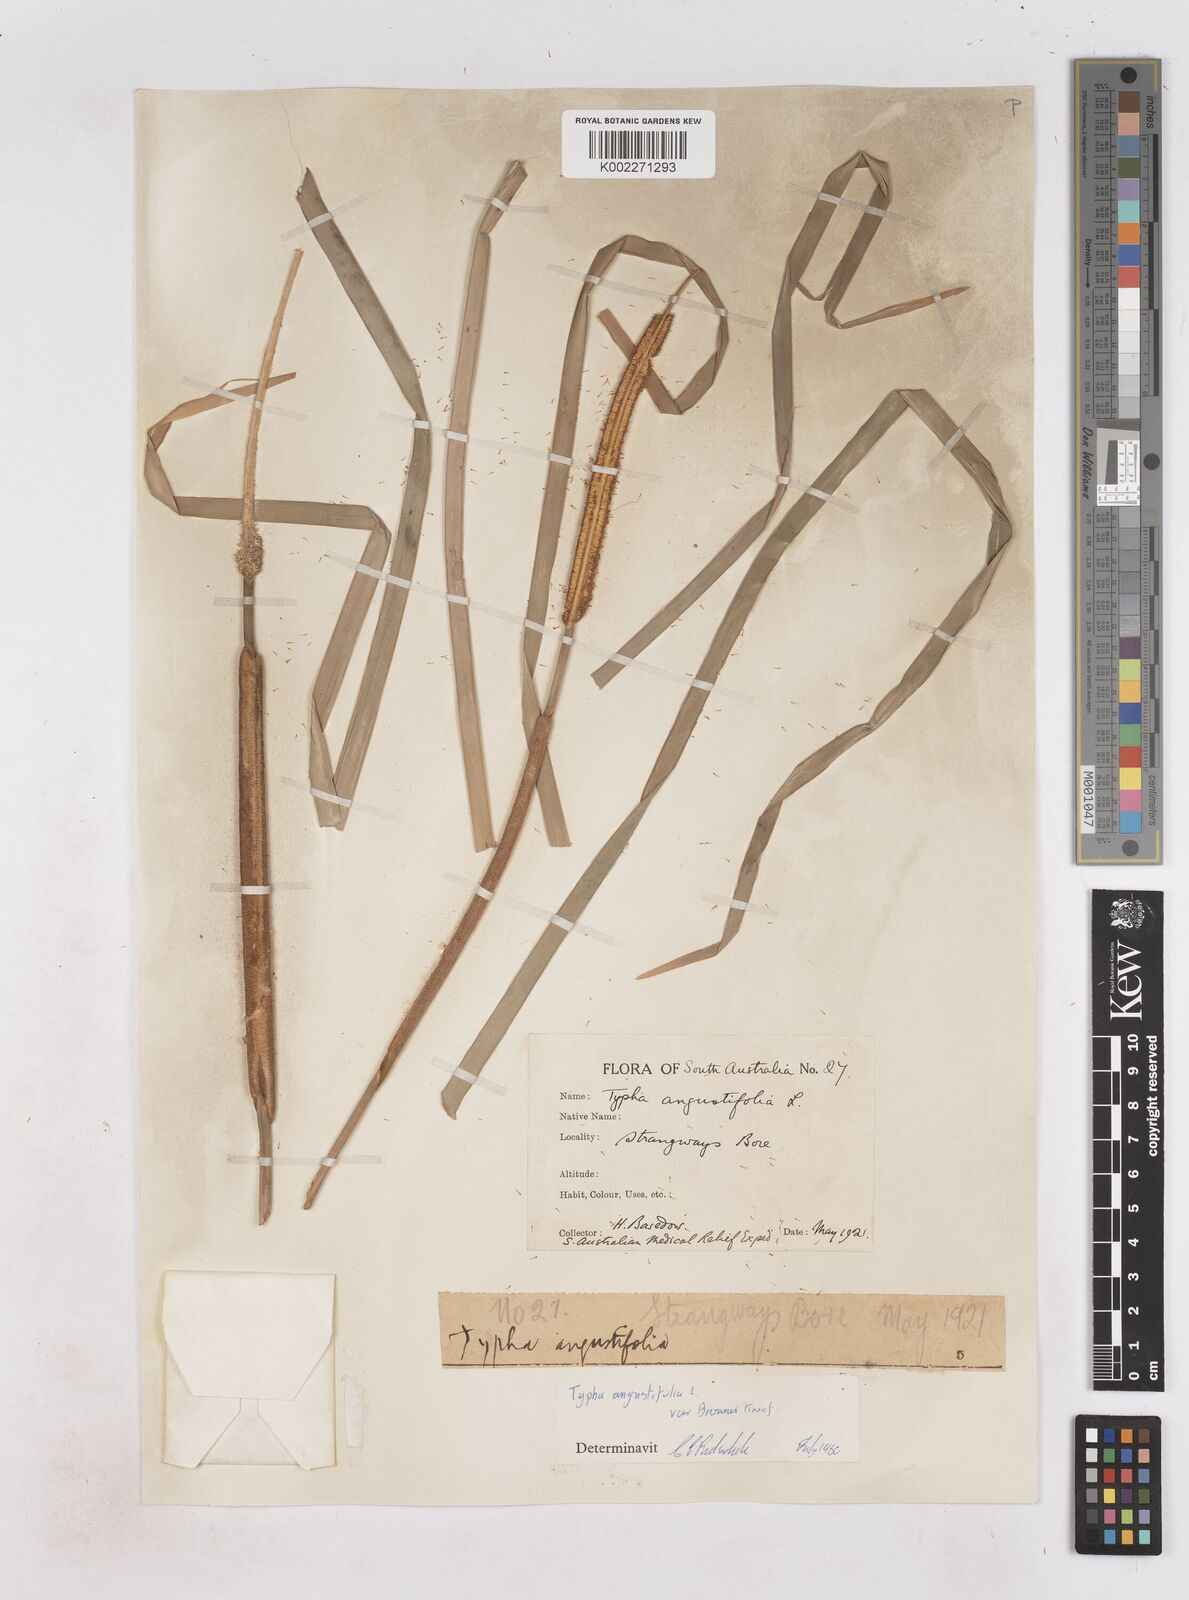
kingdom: Plantae
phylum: Tracheophyta
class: Liliopsida
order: Poales
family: Typhaceae
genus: Typha
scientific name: Typha domingensis
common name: Southern cattail
